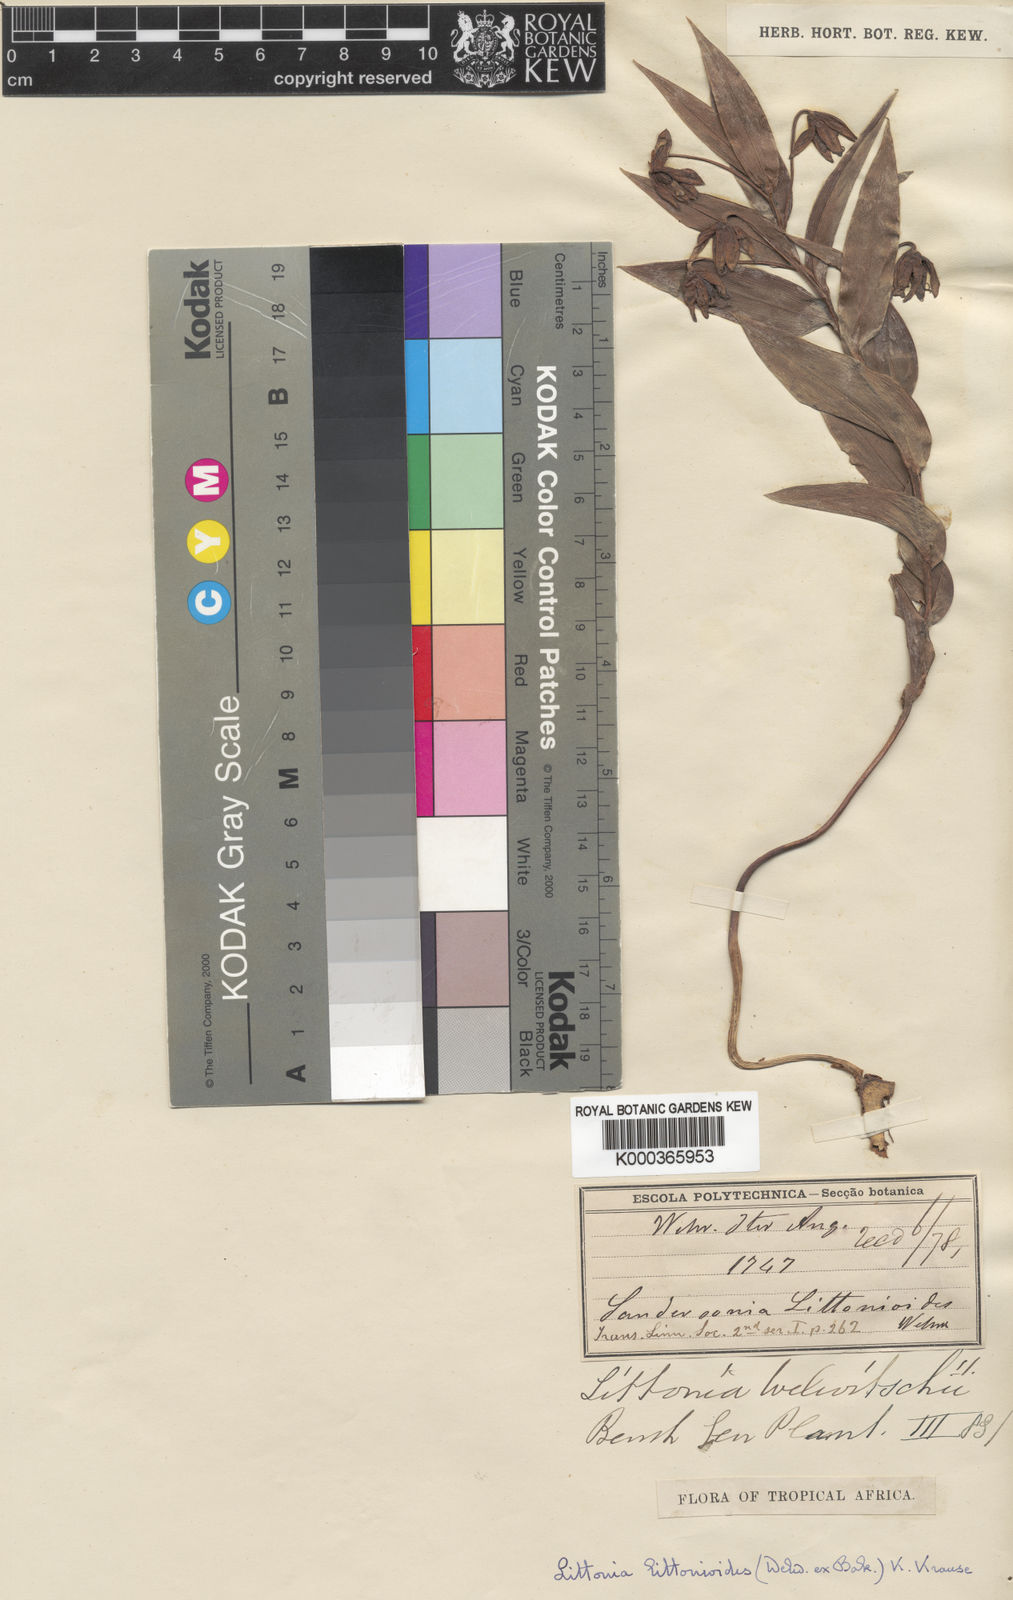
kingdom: Plantae
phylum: Tracheophyta
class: Liliopsida
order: Liliales
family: Colchicaceae
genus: Gloriosa
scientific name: Gloriosa littonioides
